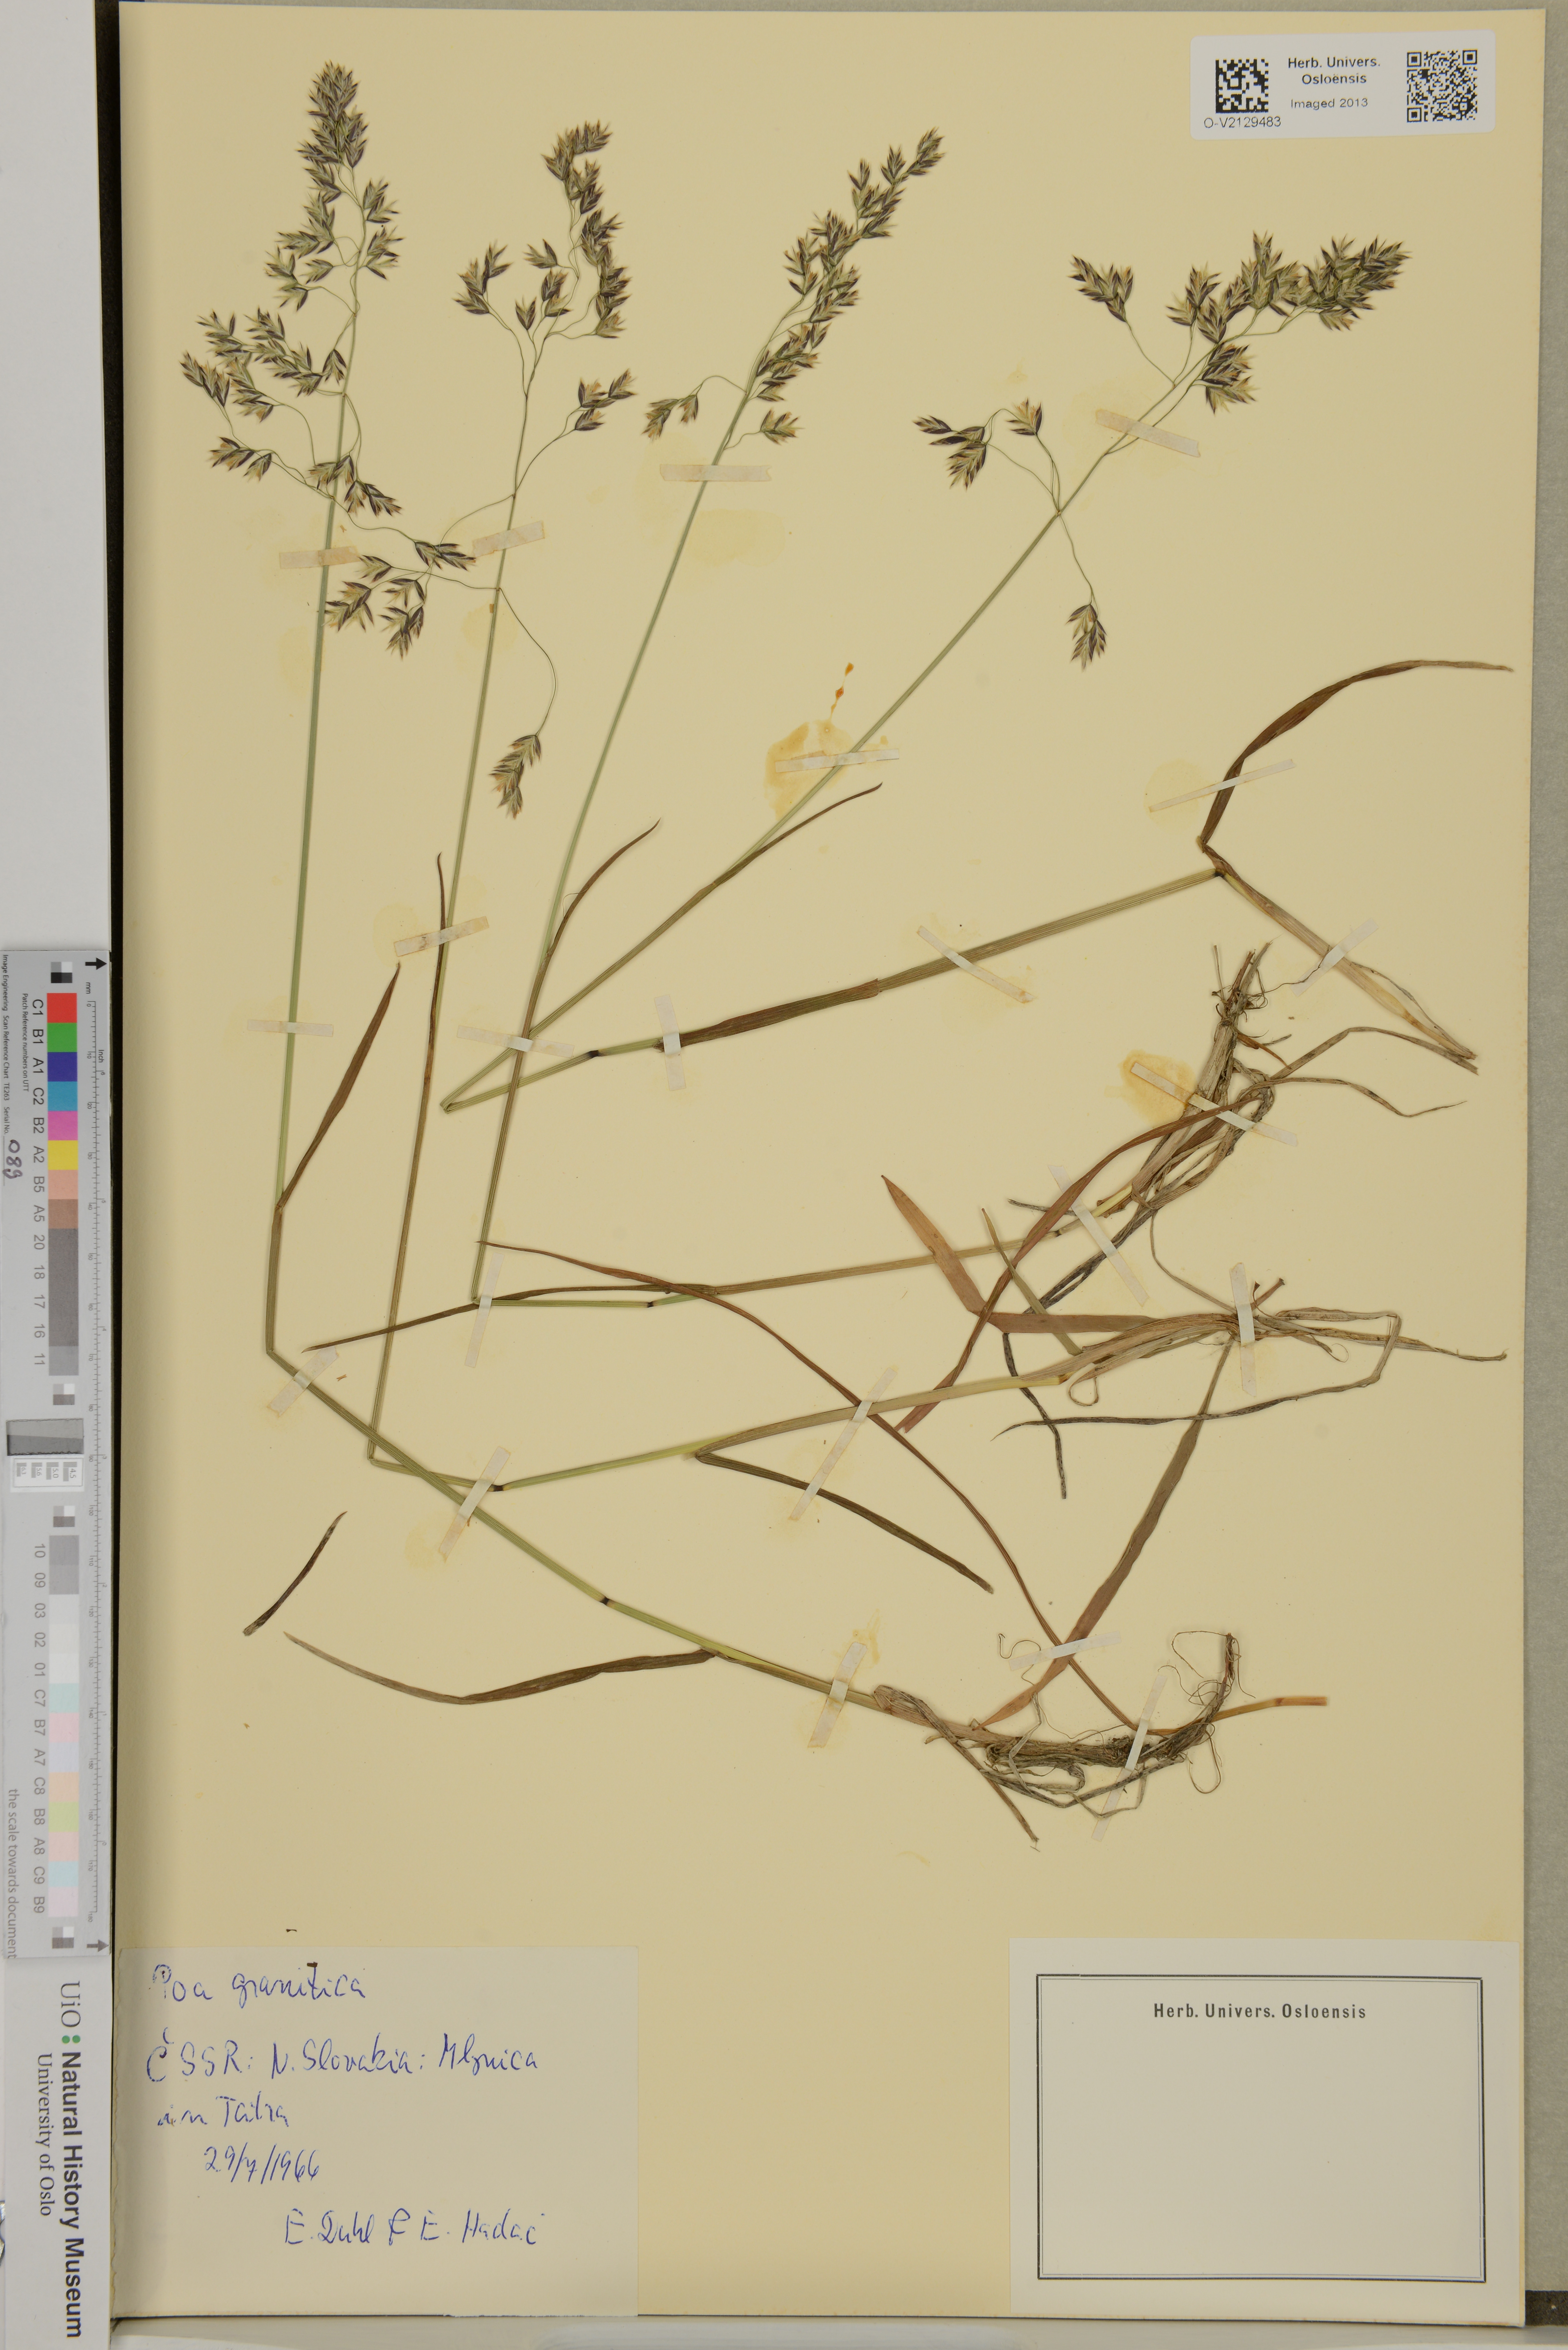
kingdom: Plantae
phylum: Tracheophyta
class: Liliopsida
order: Poales
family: Poaceae
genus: Poa
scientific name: Poa granitica
